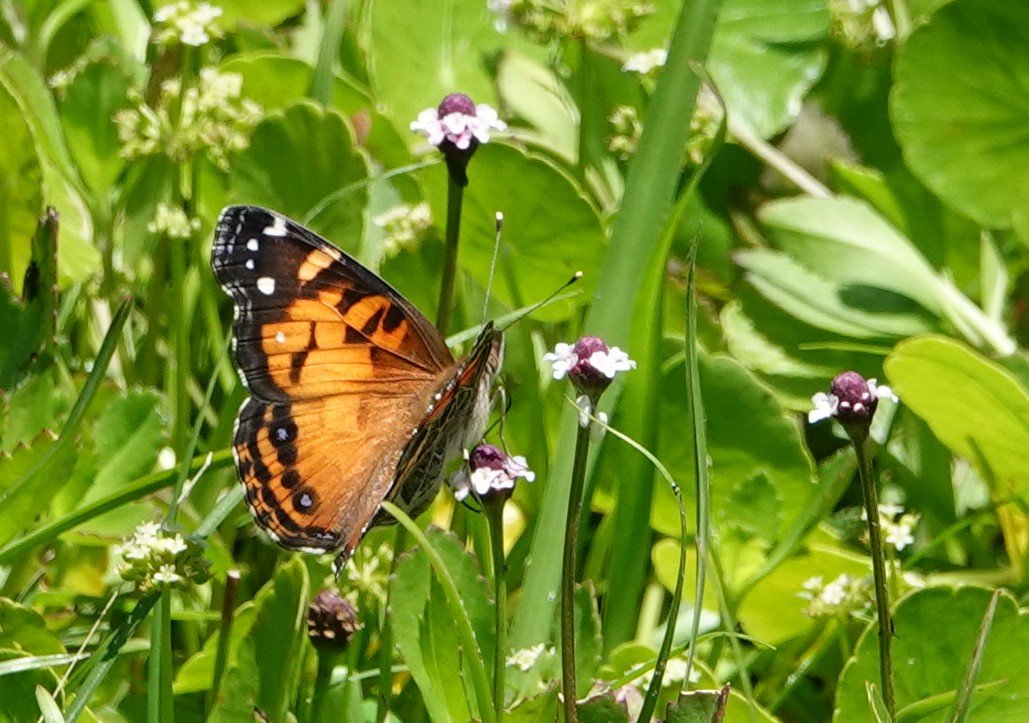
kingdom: Animalia
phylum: Arthropoda
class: Insecta
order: Lepidoptera
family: Nymphalidae
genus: Vanessa
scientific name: Vanessa virginiensis
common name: American Lady
